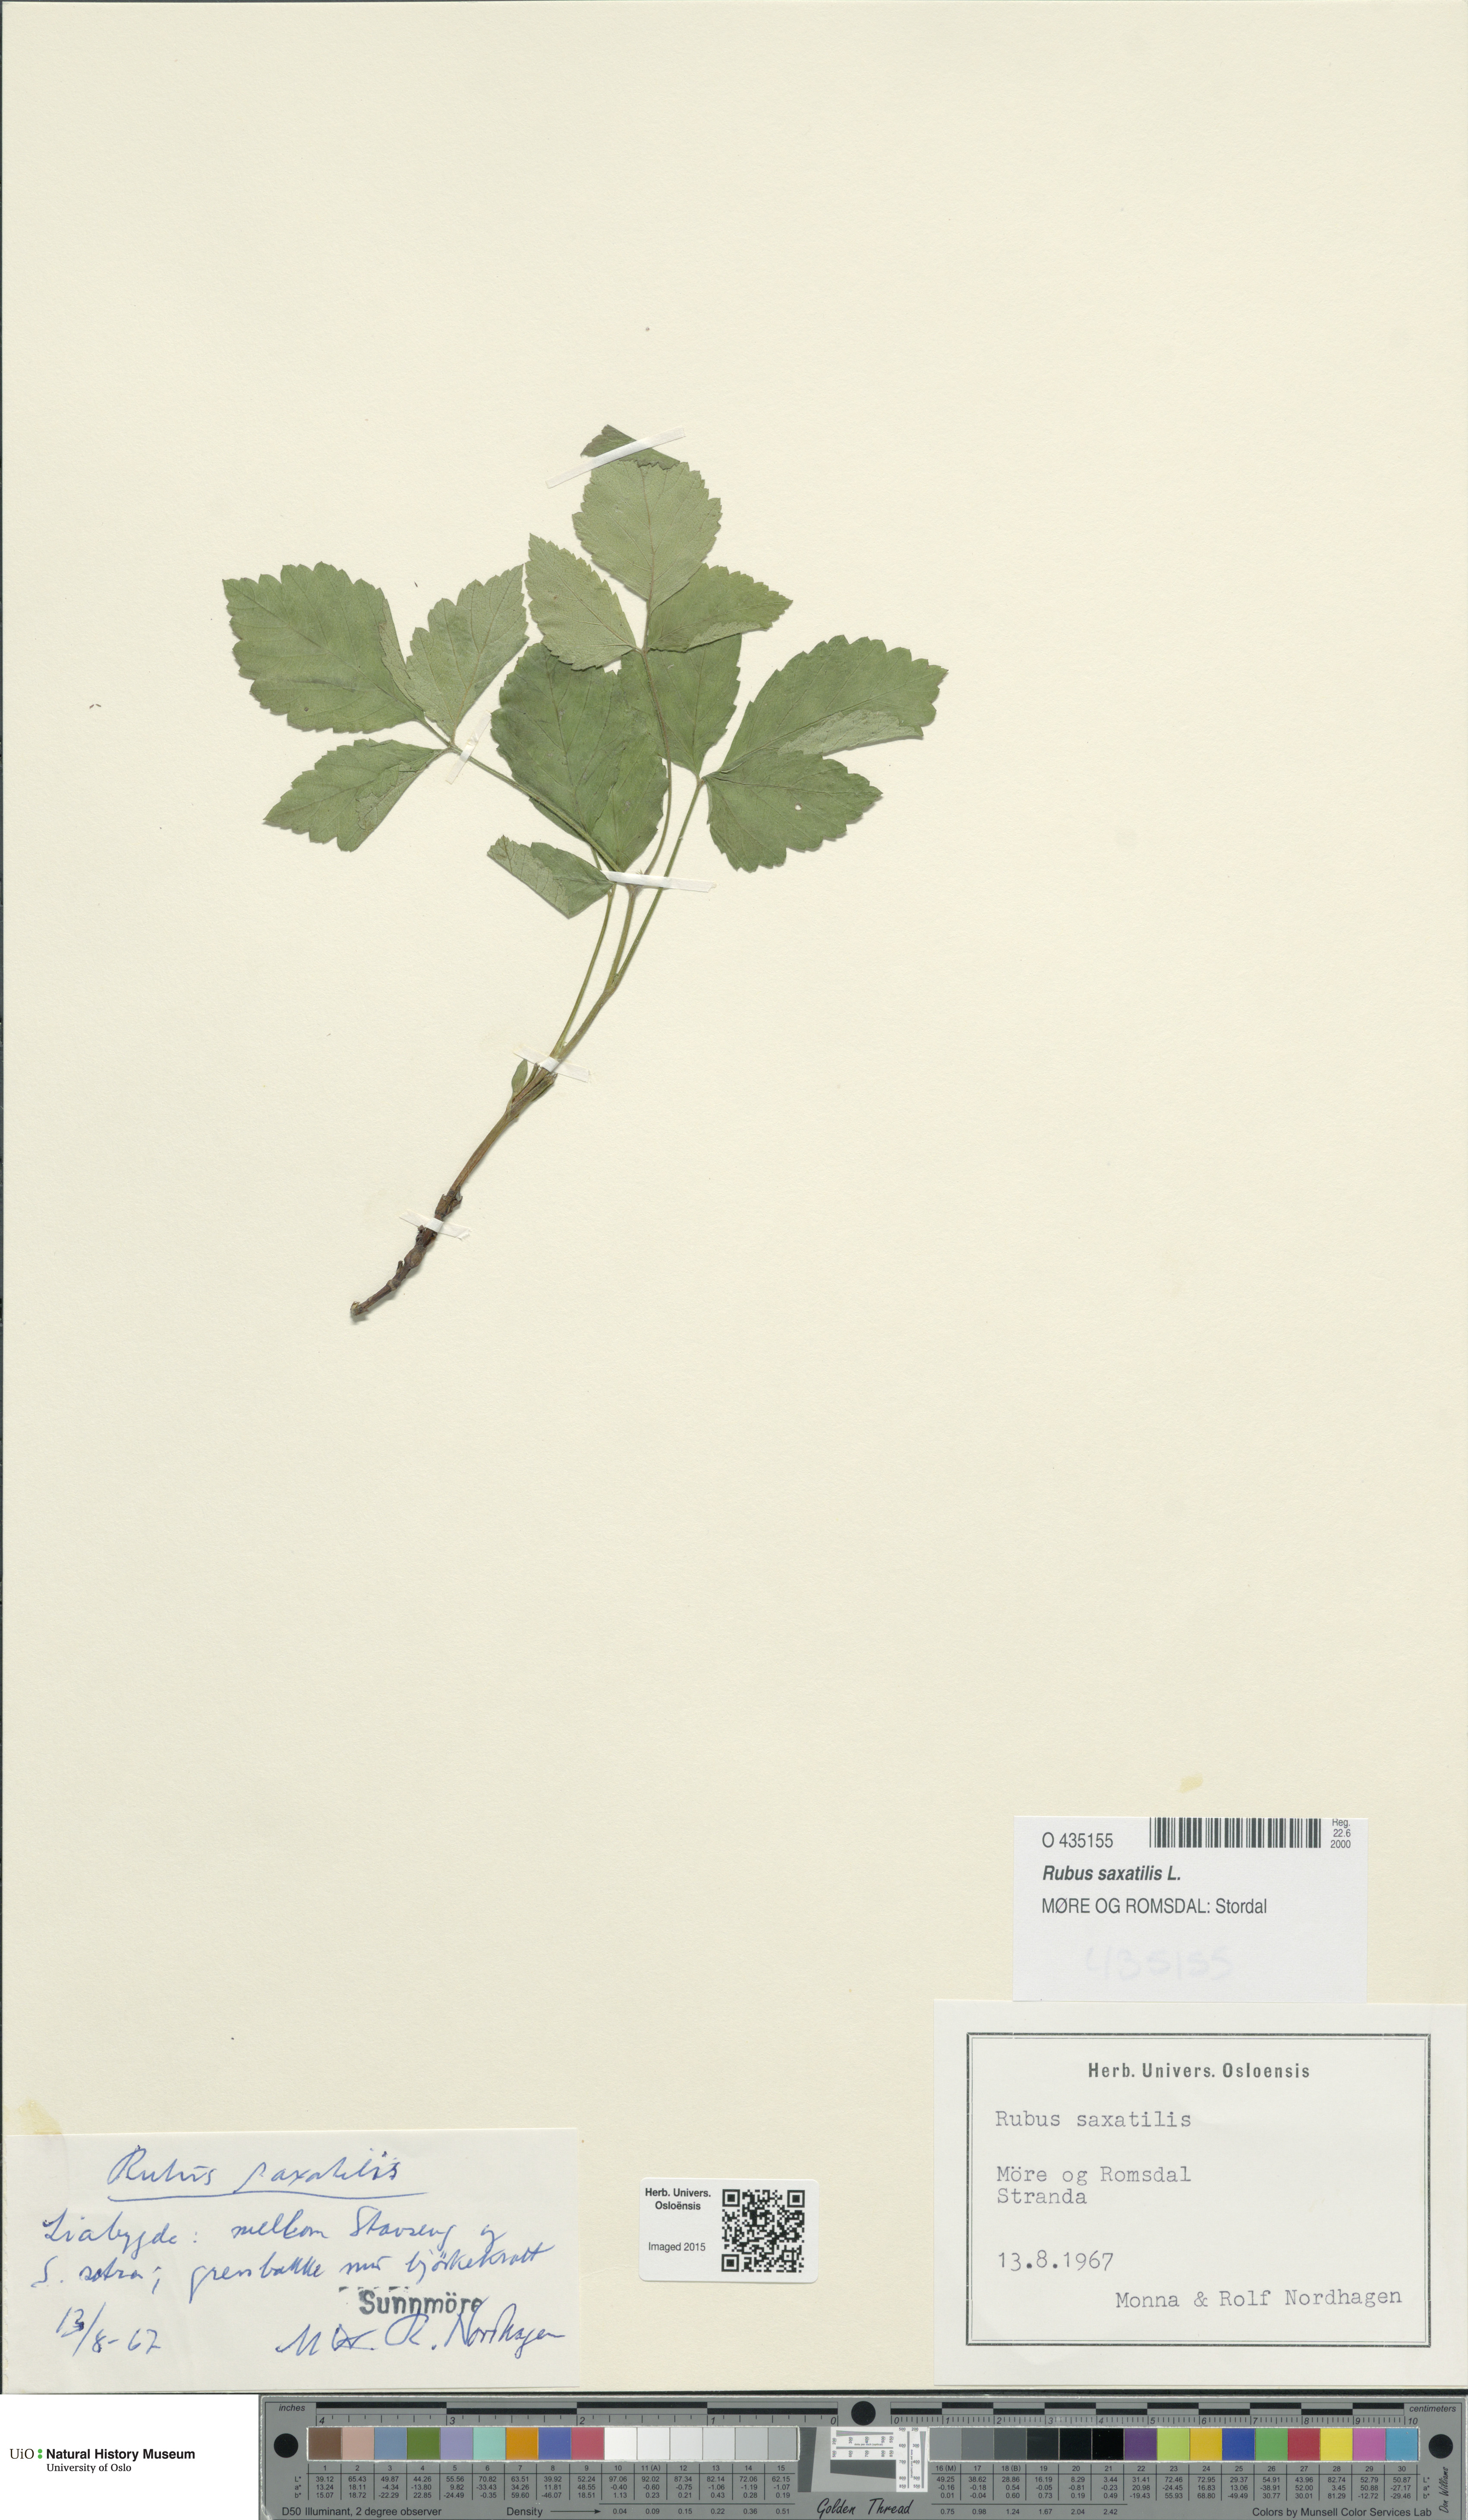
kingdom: Plantae
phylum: Tracheophyta
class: Magnoliopsida
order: Rosales
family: Rosaceae
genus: Rubus
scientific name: Rubus saxatilis
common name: Stone bramble
